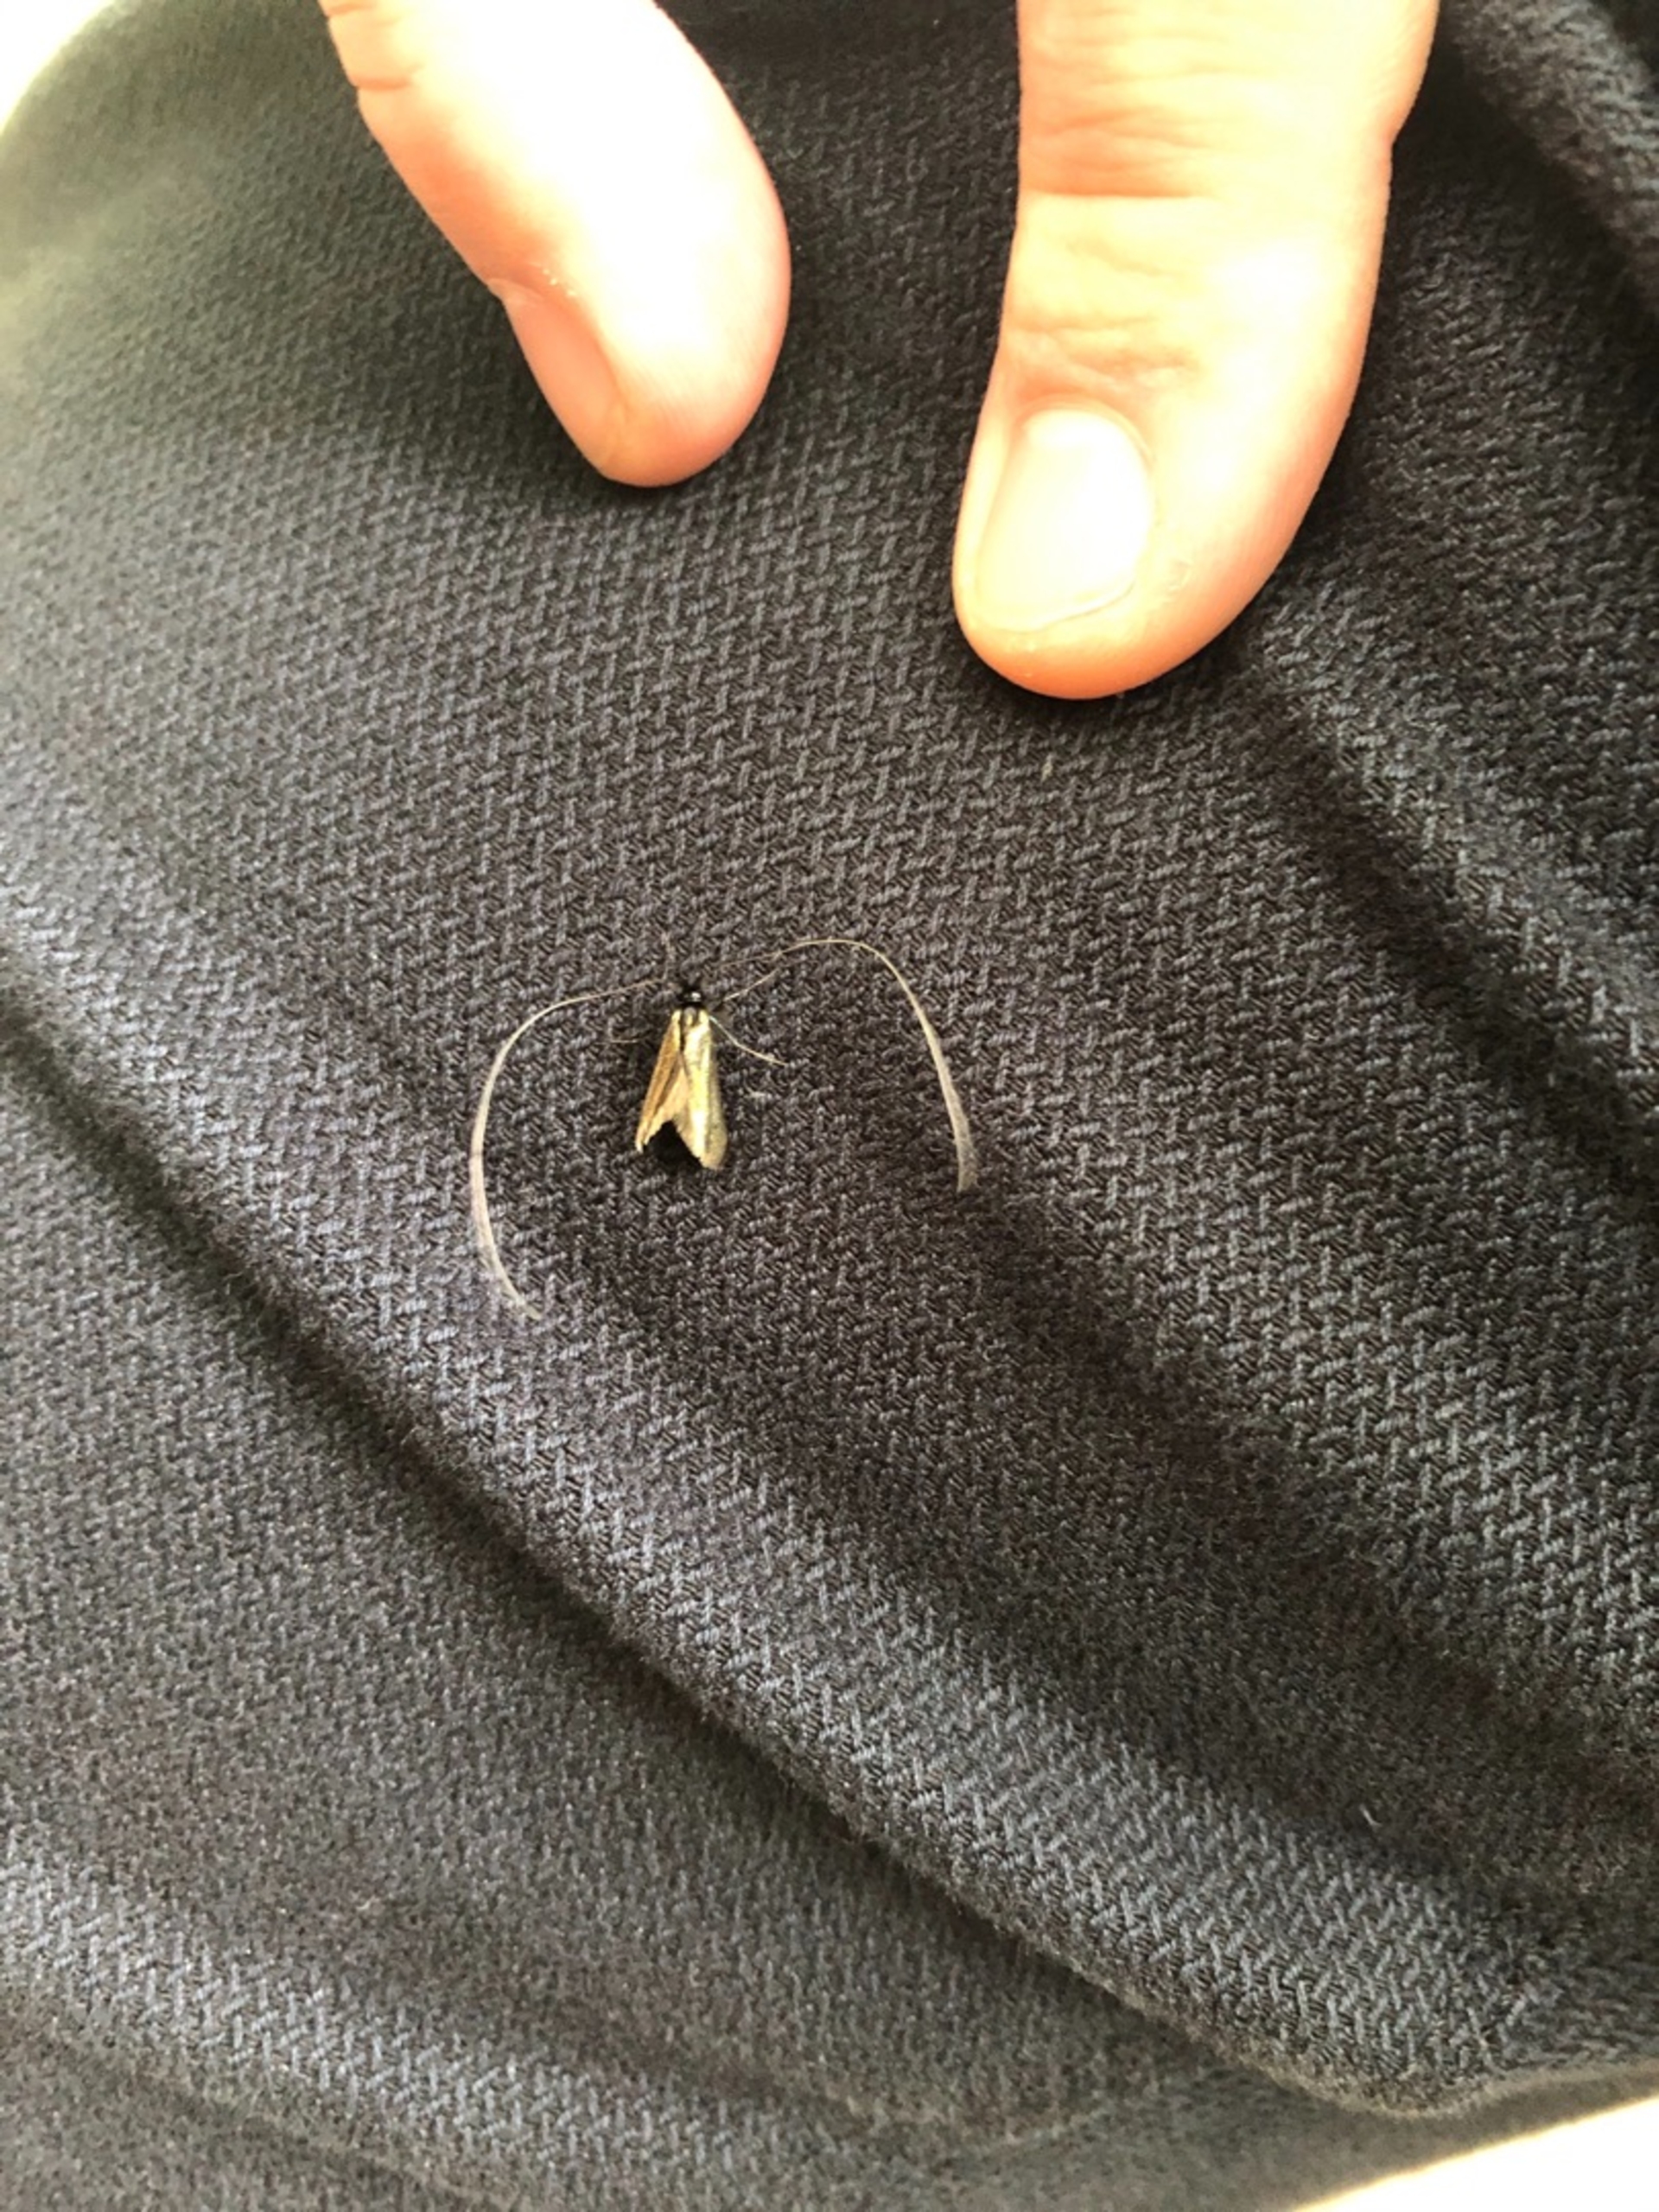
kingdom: Animalia
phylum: Arthropoda
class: Insecta
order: Lepidoptera
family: Adelidae
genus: Adela
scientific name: Adela viridella
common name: Egelanghornsmøl
